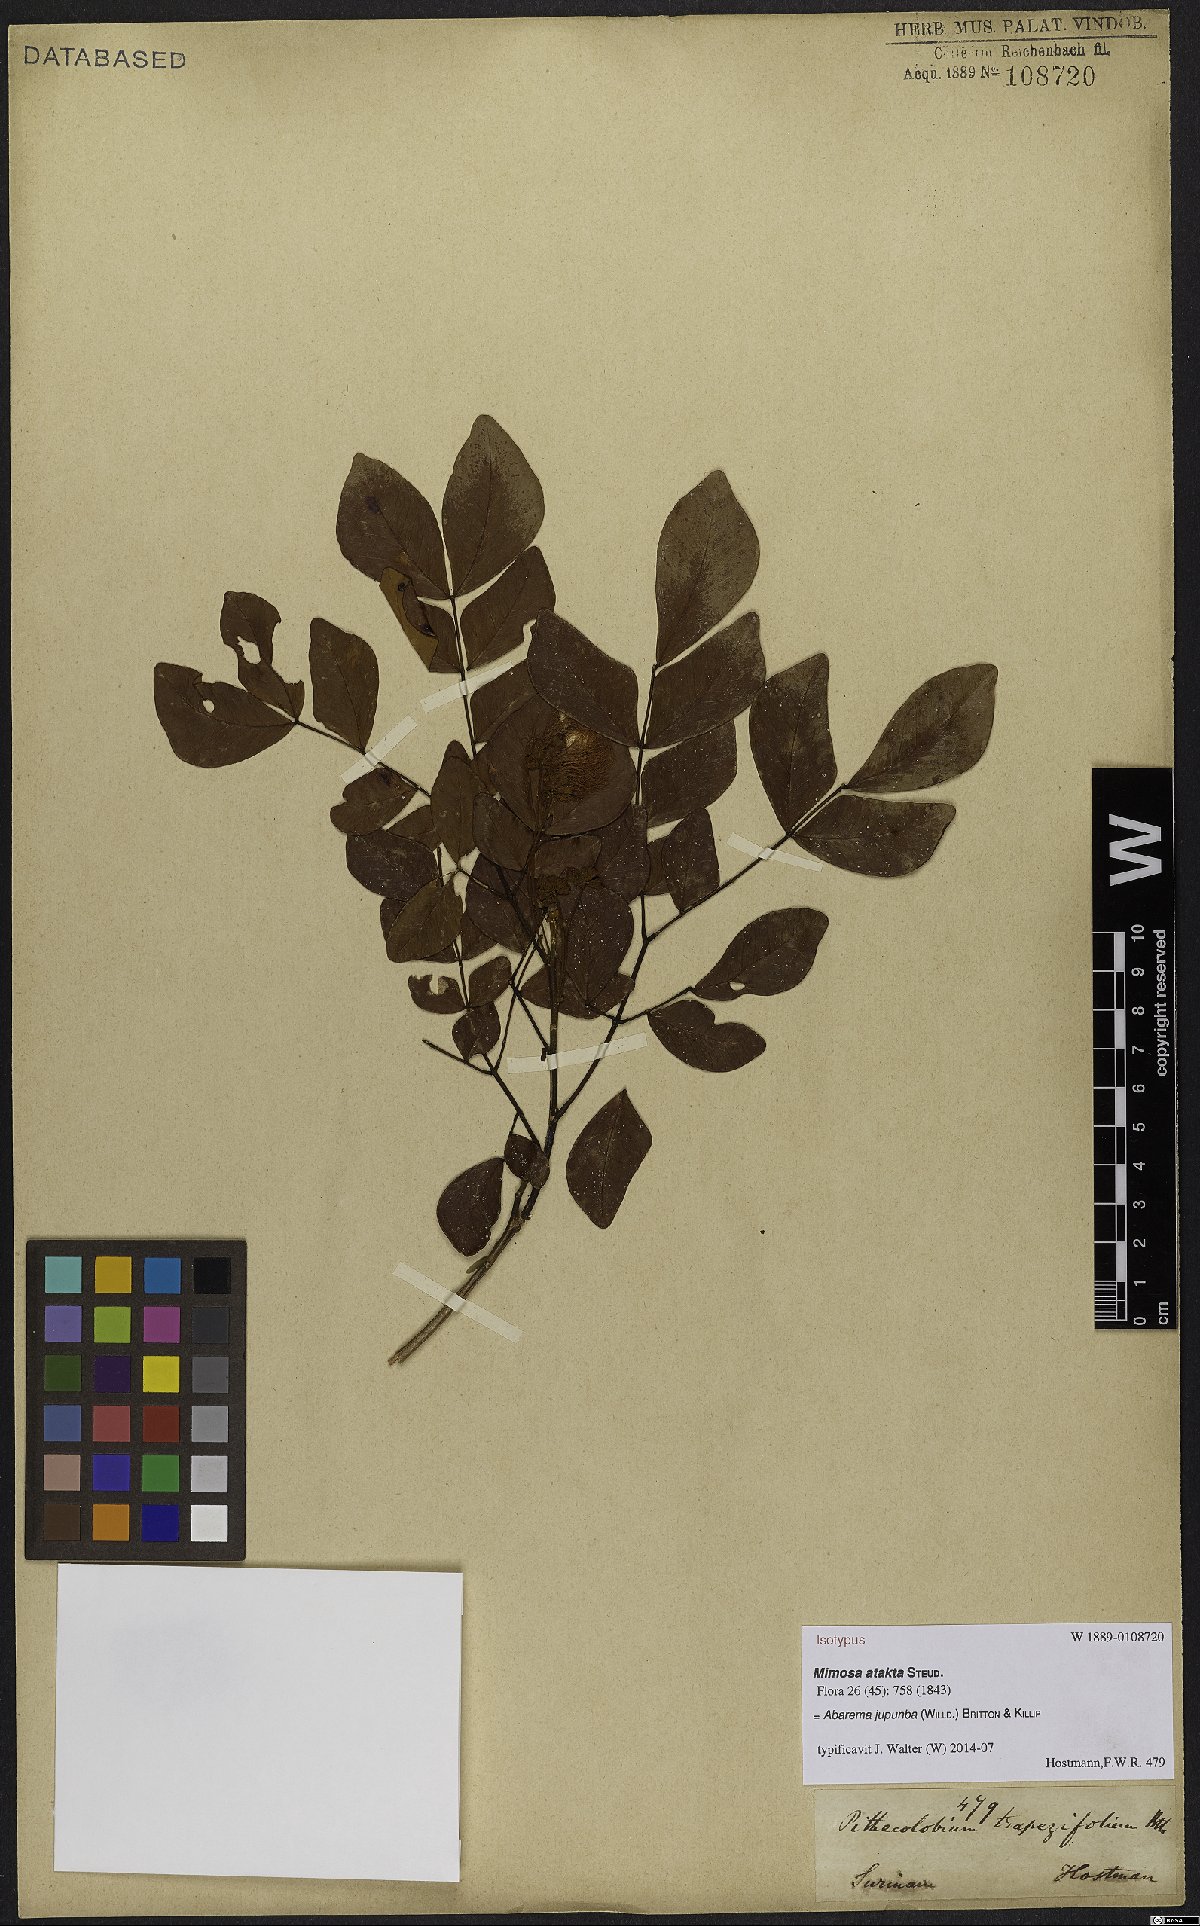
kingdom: Plantae
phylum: Tracheophyta
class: Magnoliopsida
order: Fabales
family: Fabaceae
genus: Jupunba
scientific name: Jupunba trapezifolia
